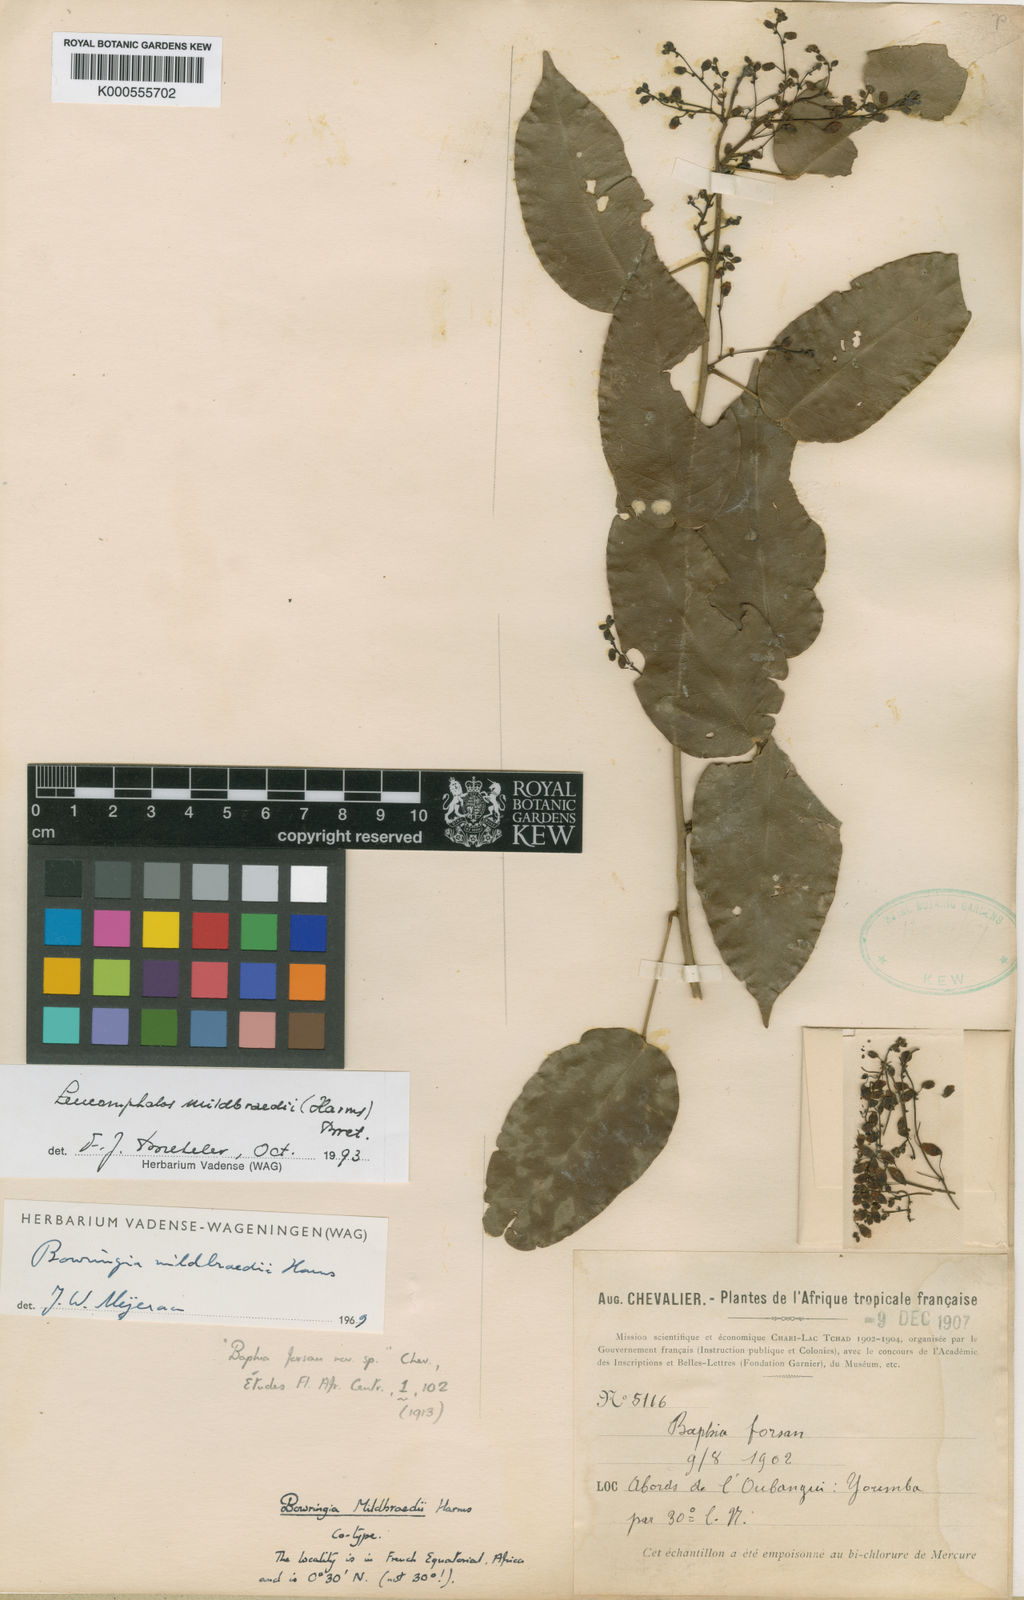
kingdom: Plantae
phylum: Tracheophyta
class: Magnoliopsida
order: Fabales
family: Fabaceae
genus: Bowringia
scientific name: Bowringia mildbraedii
